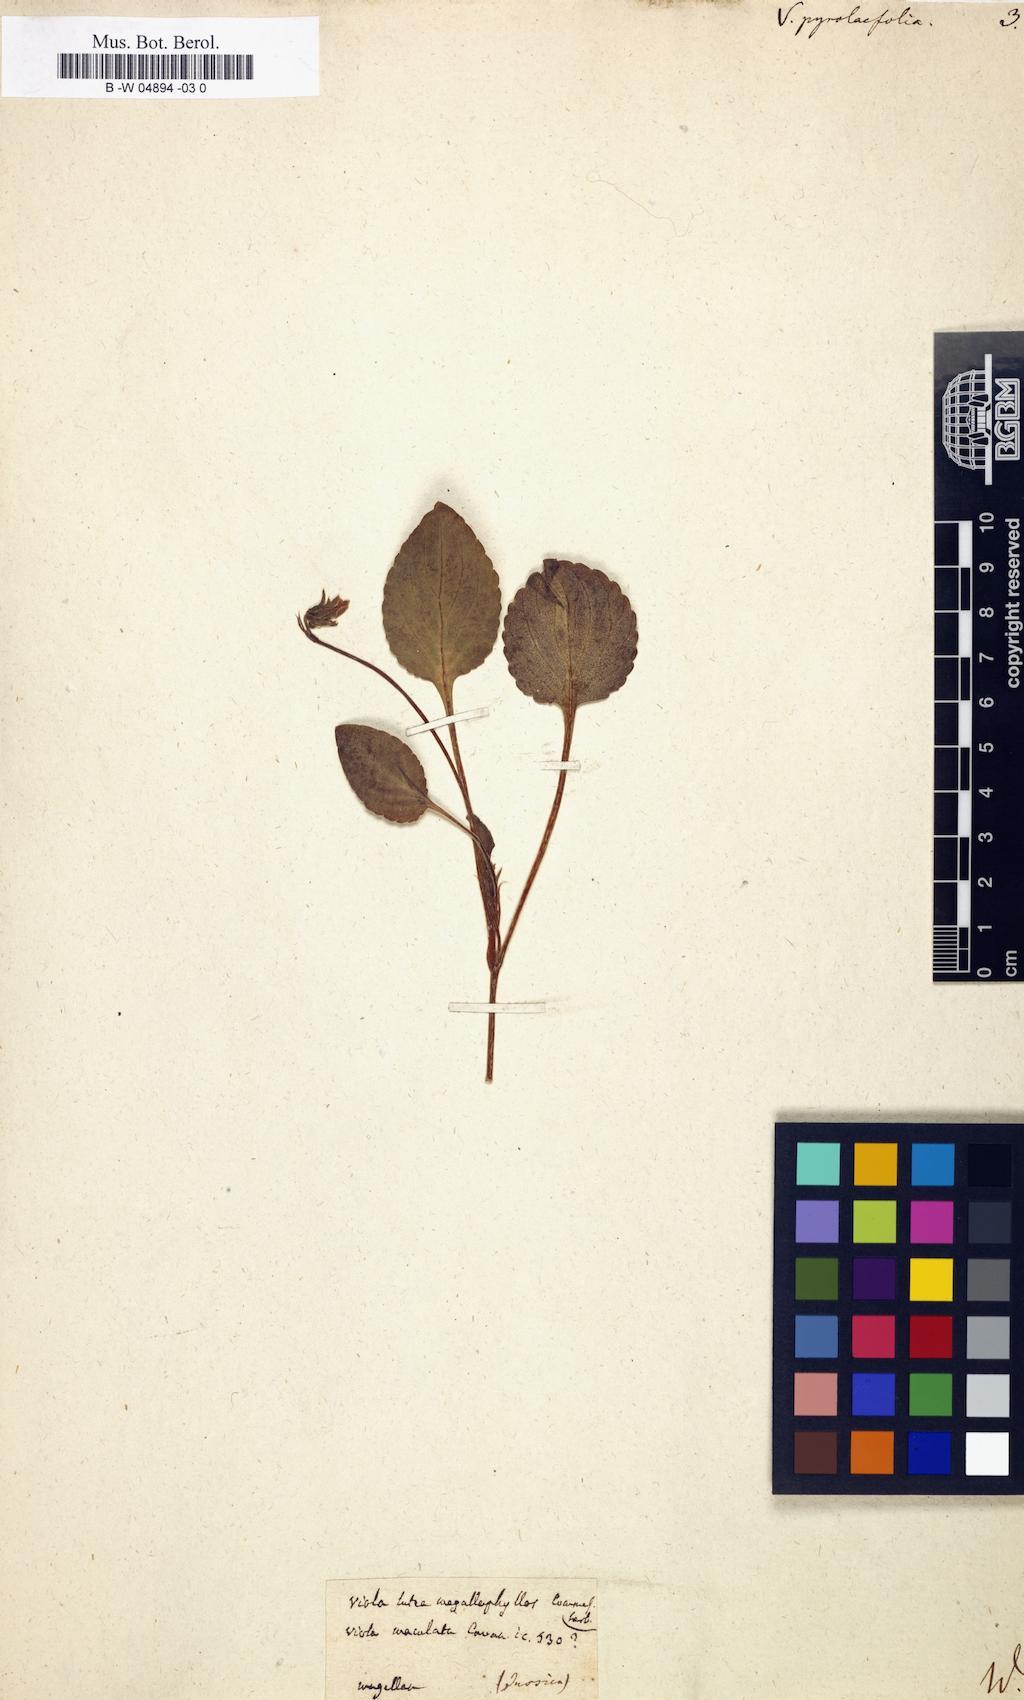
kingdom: Plantae
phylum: Tracheophyta
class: Magnoliopsida
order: Malpighiales
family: Violaceae
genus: Viola
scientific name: Viola maculata
